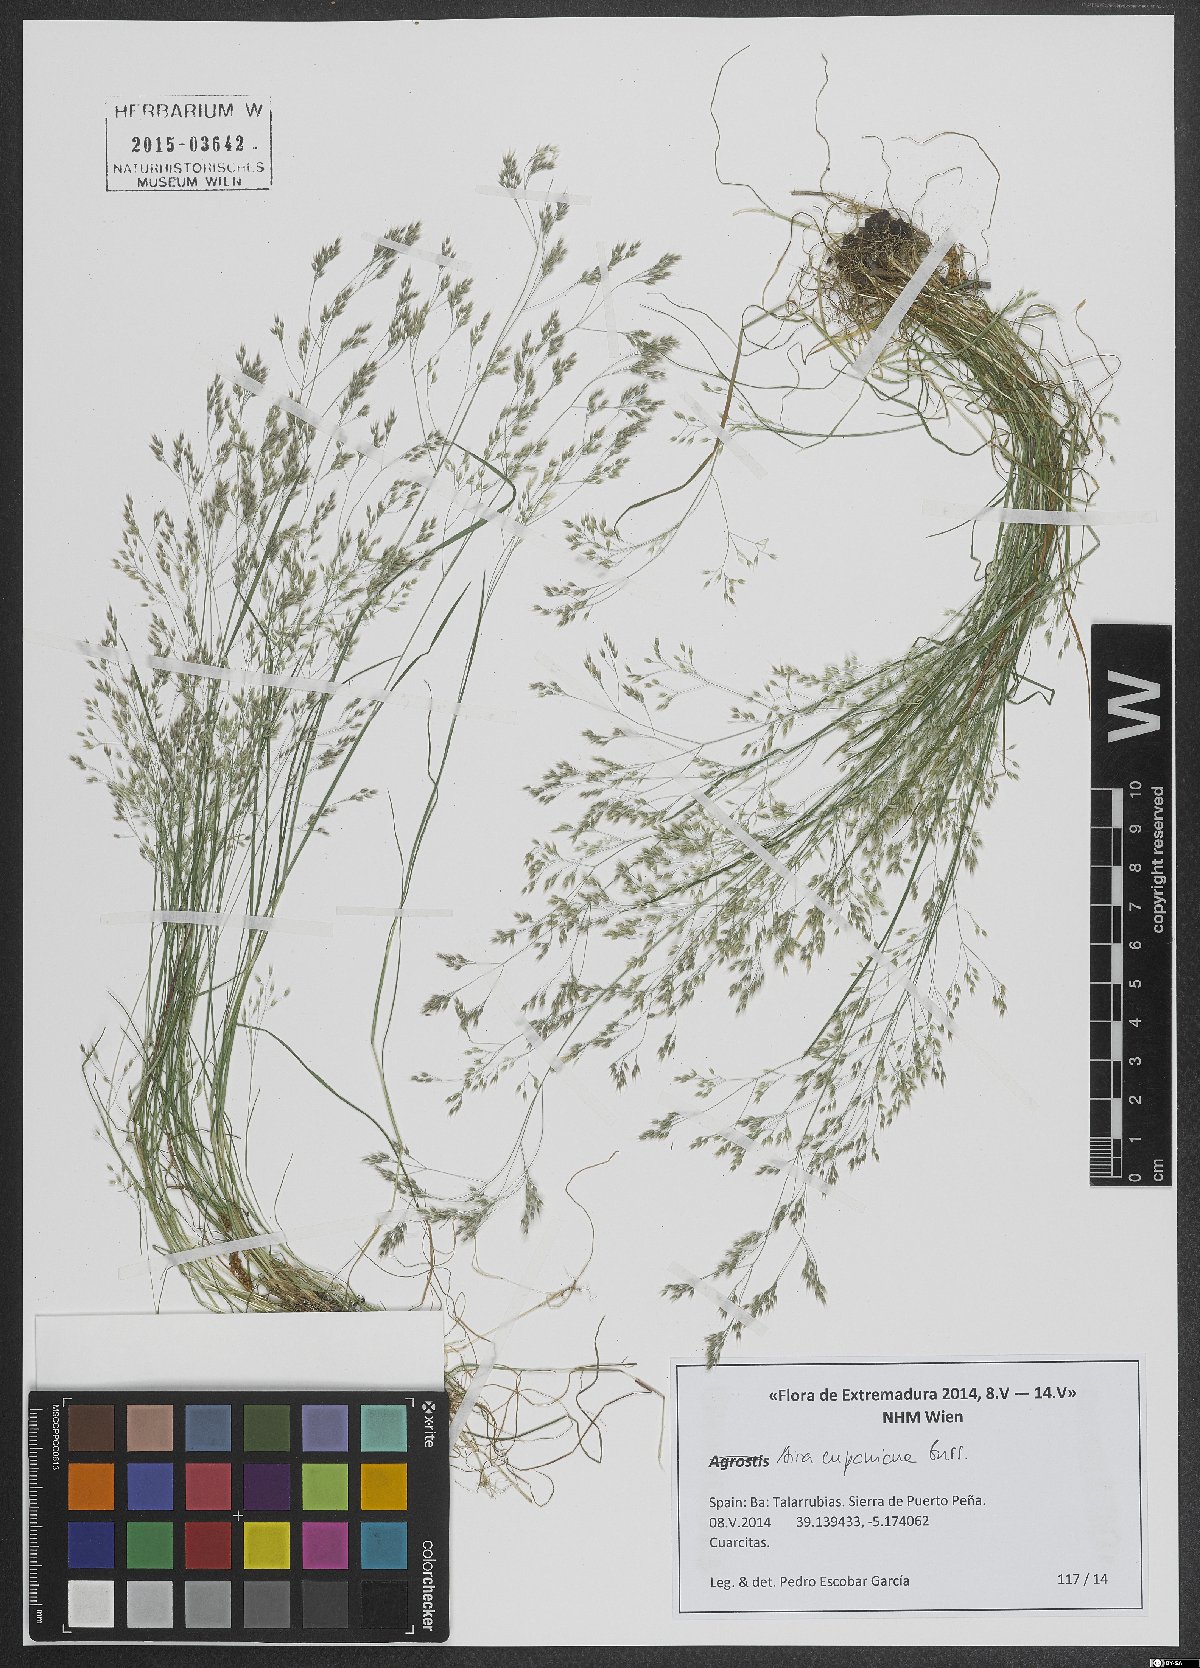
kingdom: Plantae
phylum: Tracheophyta
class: Liliopsida
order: Poales
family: Poaceae
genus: Aira
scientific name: Aira cupaniana
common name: Silver hairgrass
